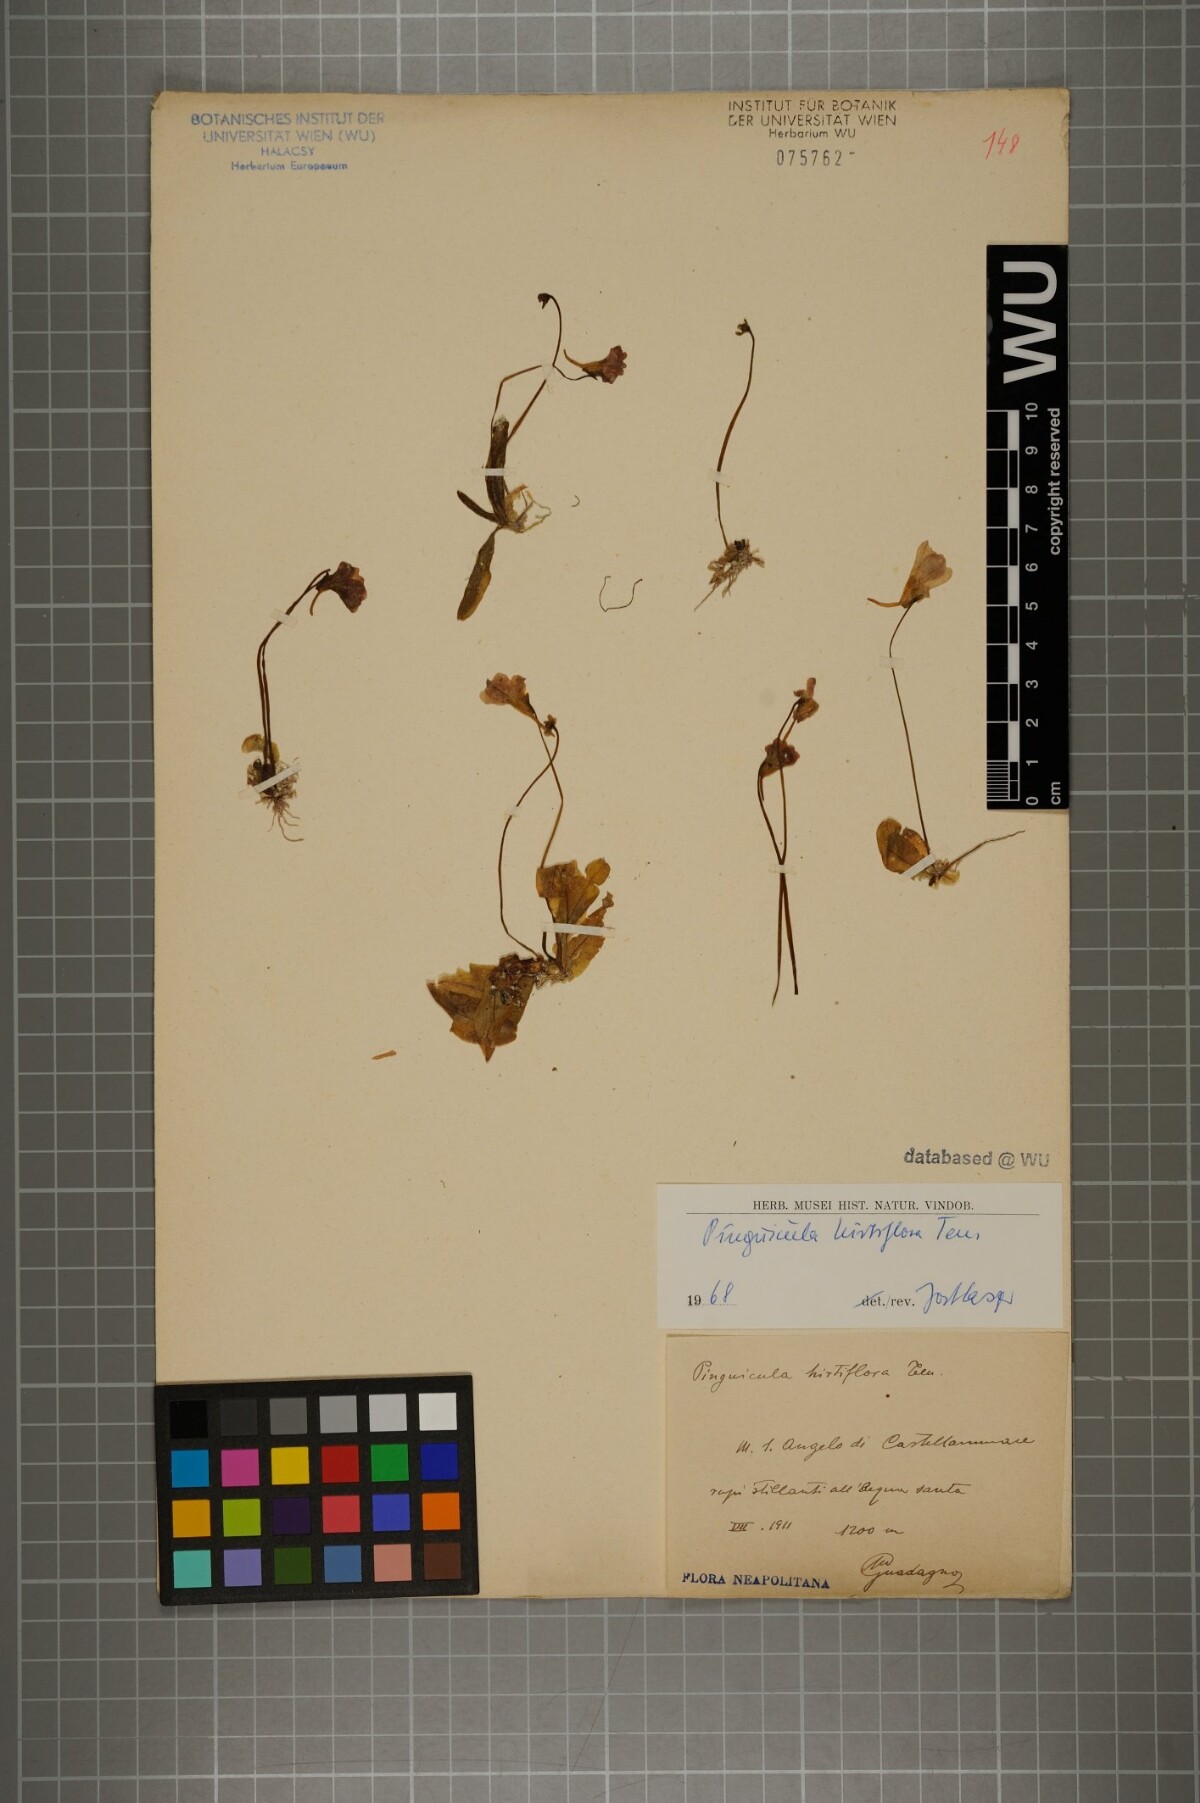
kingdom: Plantae
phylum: Tracheophyta
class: Magnoliopsida
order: Lamiales
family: Lentibulariaceae
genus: Pinguicula
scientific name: Pinguicula crystallina
